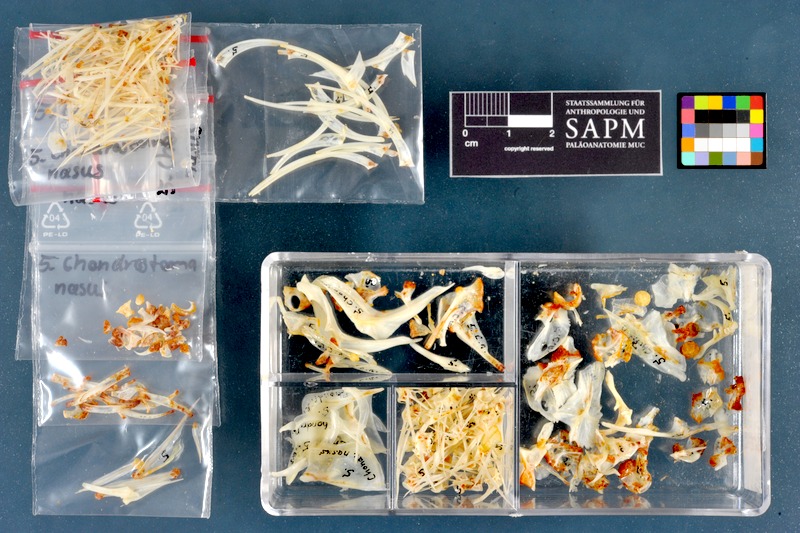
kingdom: Animalia
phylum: Chordata
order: Cypriniformes
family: Cyprinidae
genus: Vimba
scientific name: Vimba vimba
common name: Vimba
